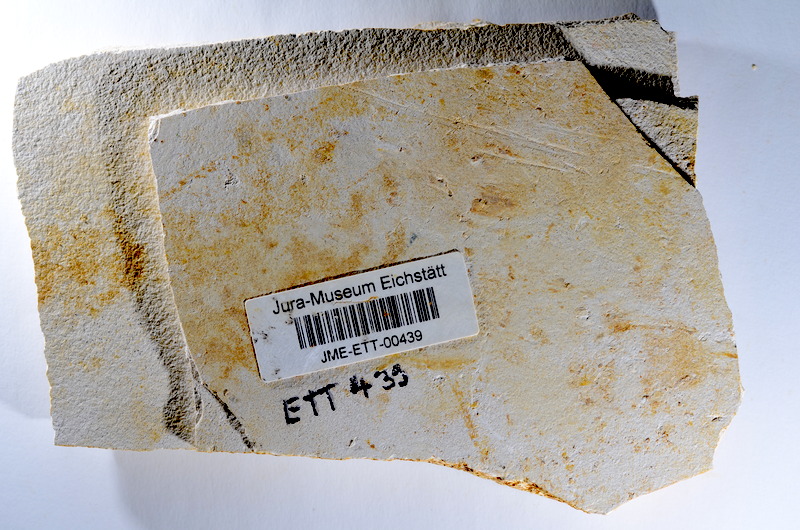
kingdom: Animalia
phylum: Chordata
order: Salmoniformes
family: Orthogonikleithridae
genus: Orthogonikleithrus
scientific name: Orthogonikleithrus hoelli
